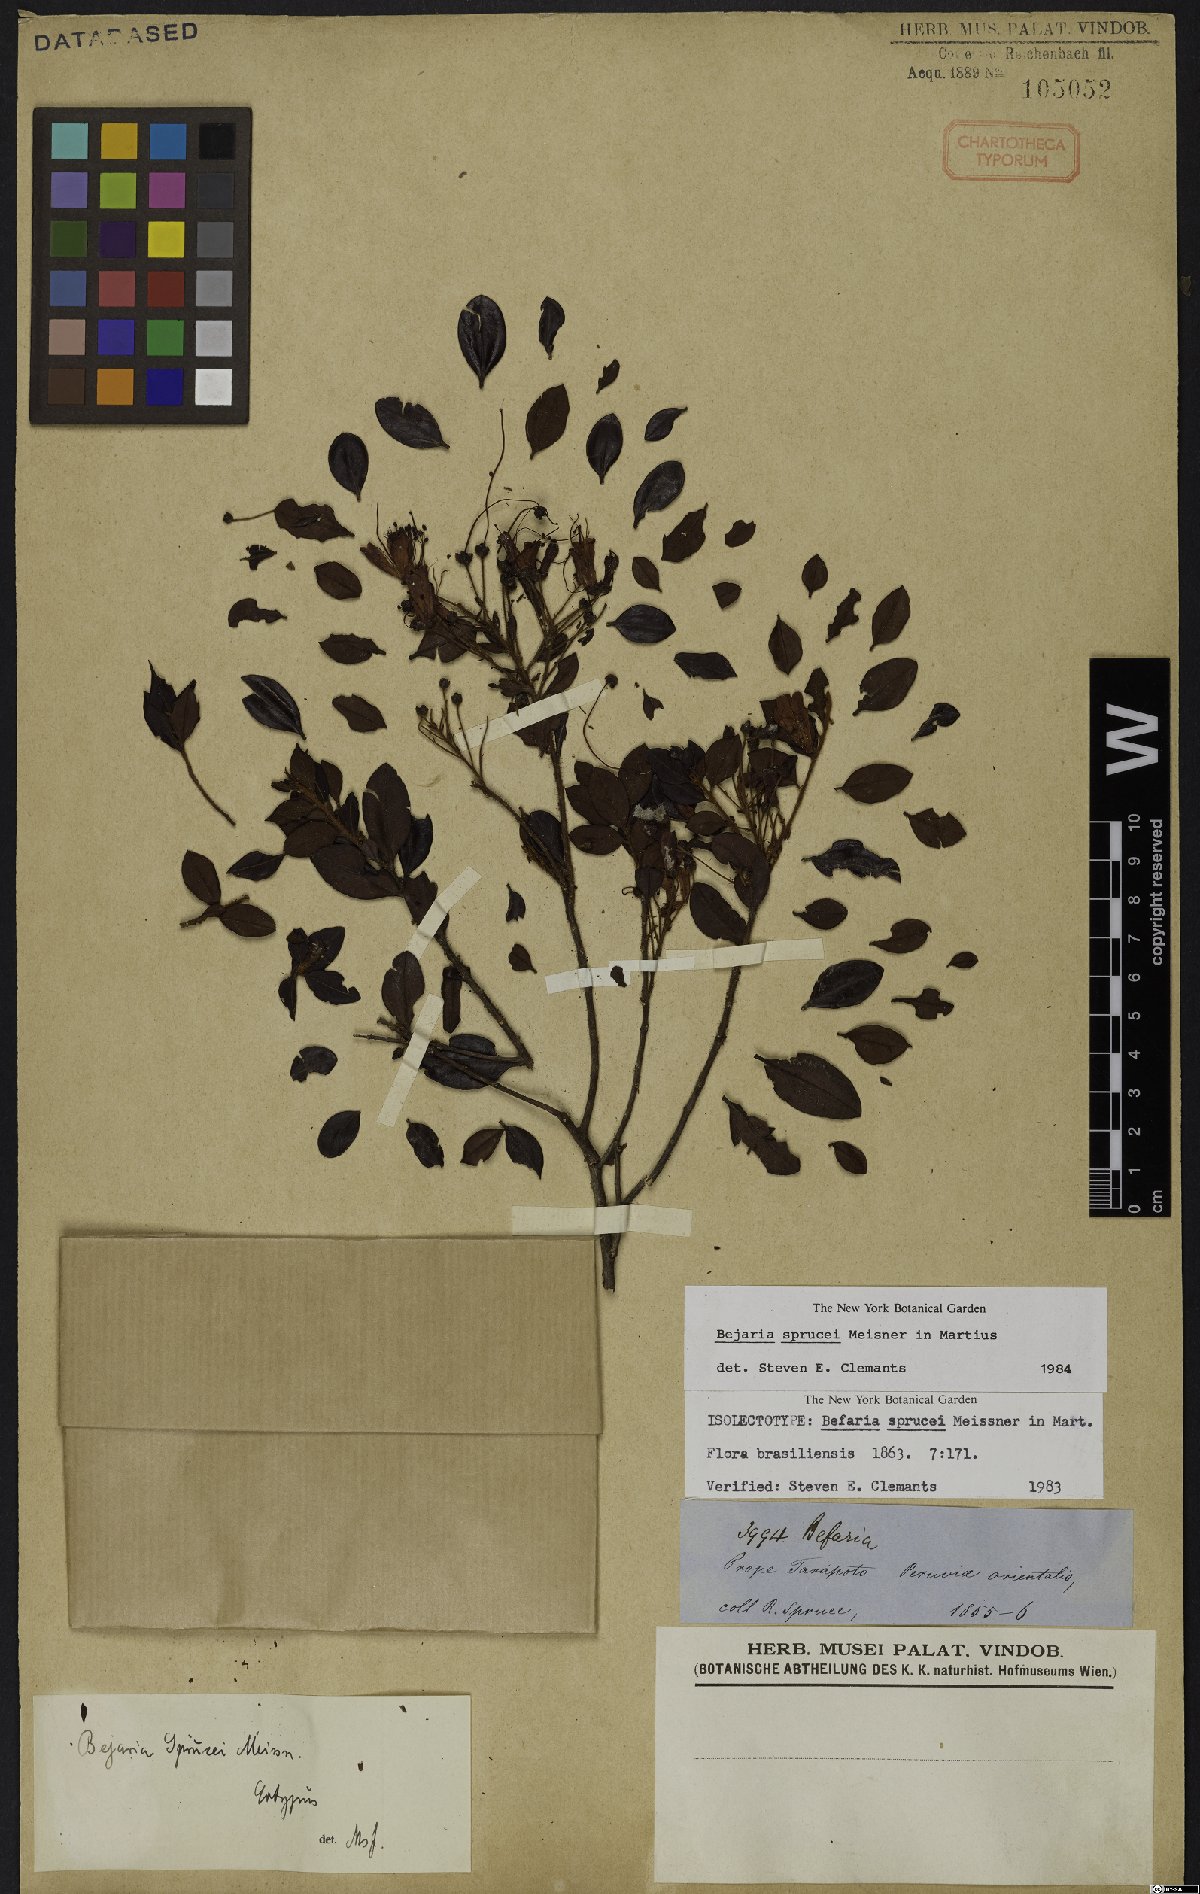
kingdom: Plantae
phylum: Tracheophyta
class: Magnoliopsida
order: Ericales
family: Ericaceae
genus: Bejaria
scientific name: Bejaria sprucei
